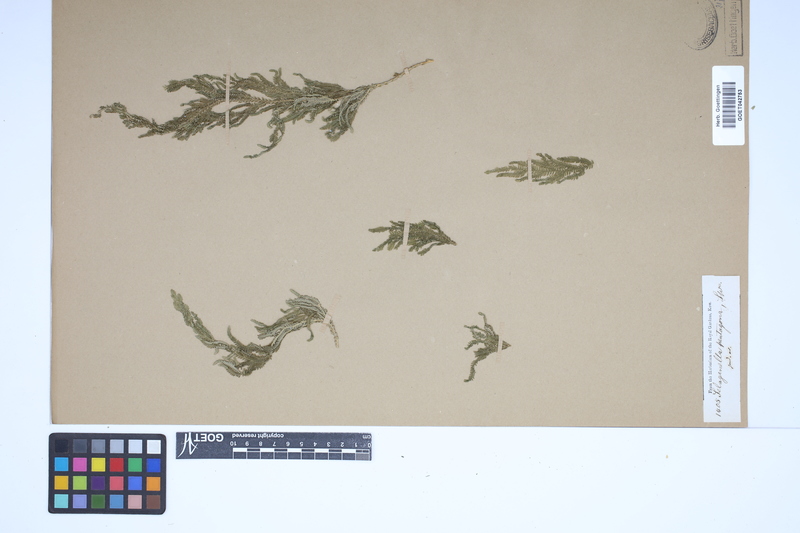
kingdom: Plantae
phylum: Tracheophyta
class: Lycopodiopsida
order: Selaginellales
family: Selaginellaceae
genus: Selaginella
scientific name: Selaginella pentagona
